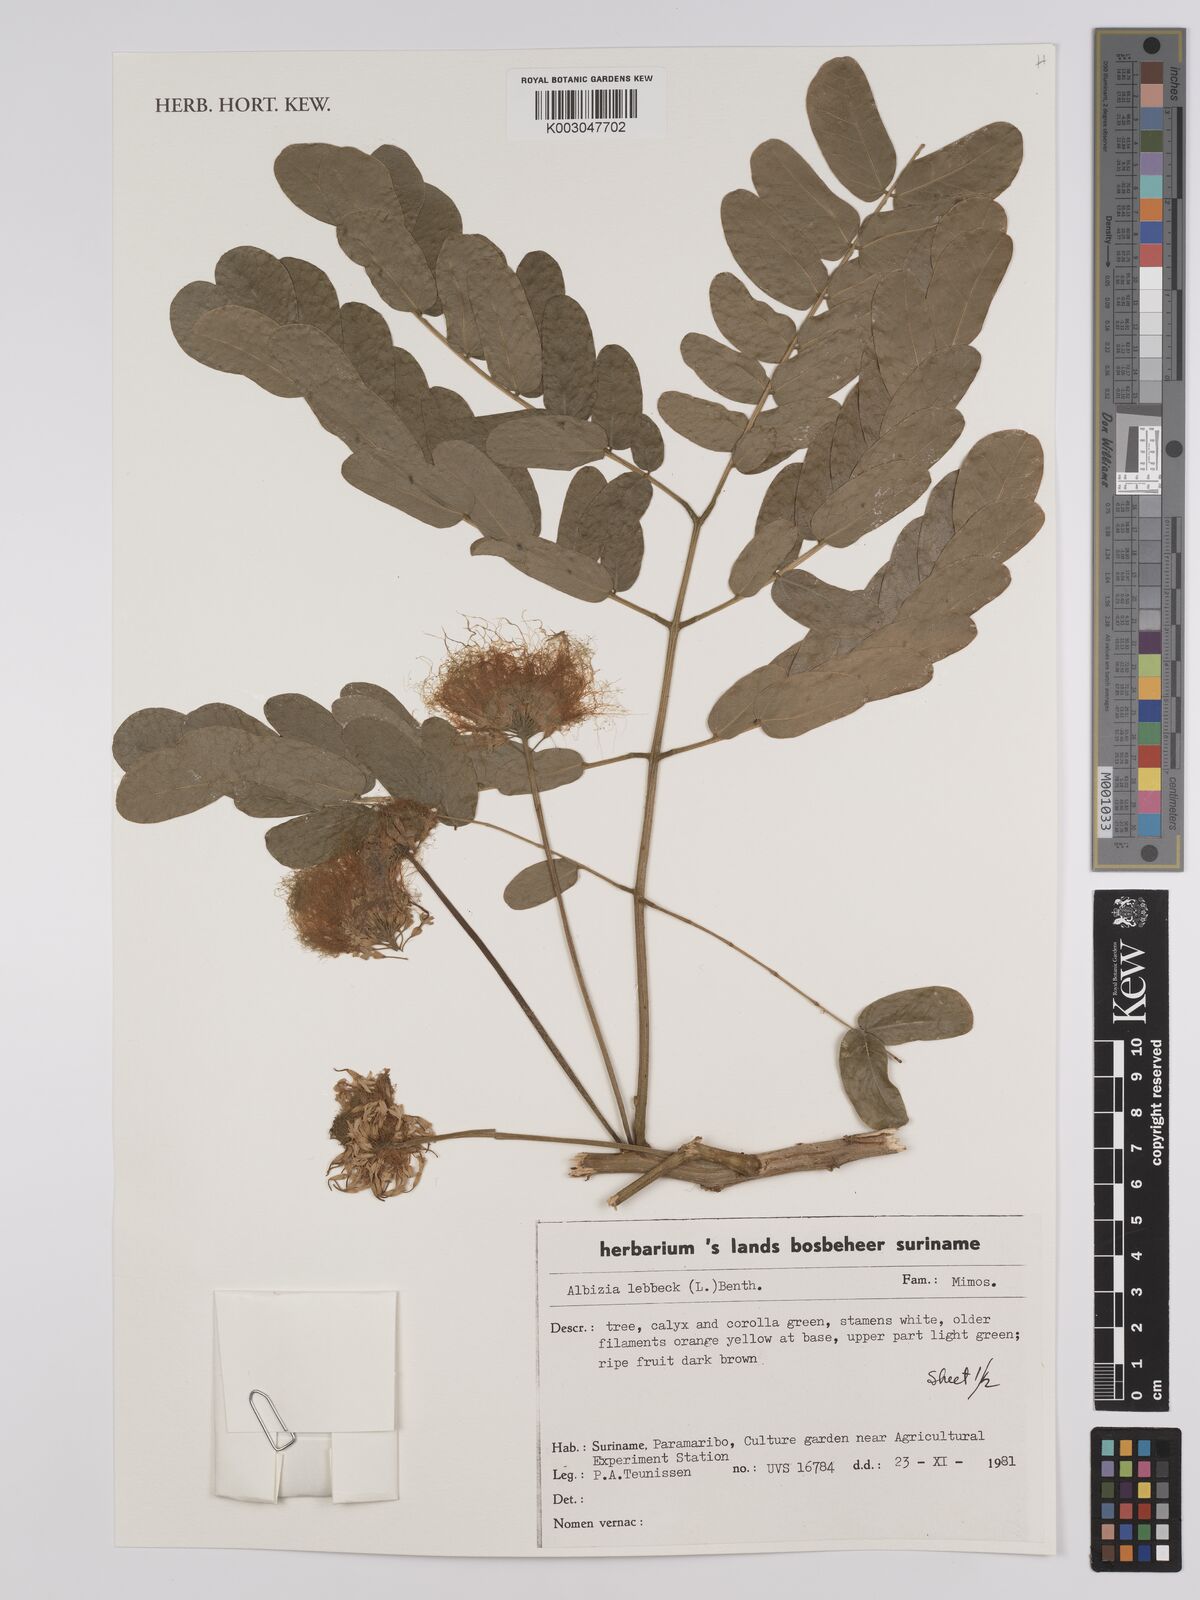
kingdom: Plantae
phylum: Tracheophyta
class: Magnoliopsida
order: Fabales
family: Fabaceae
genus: Albizia
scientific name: Albizia lebbeck
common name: Woman's tongue
